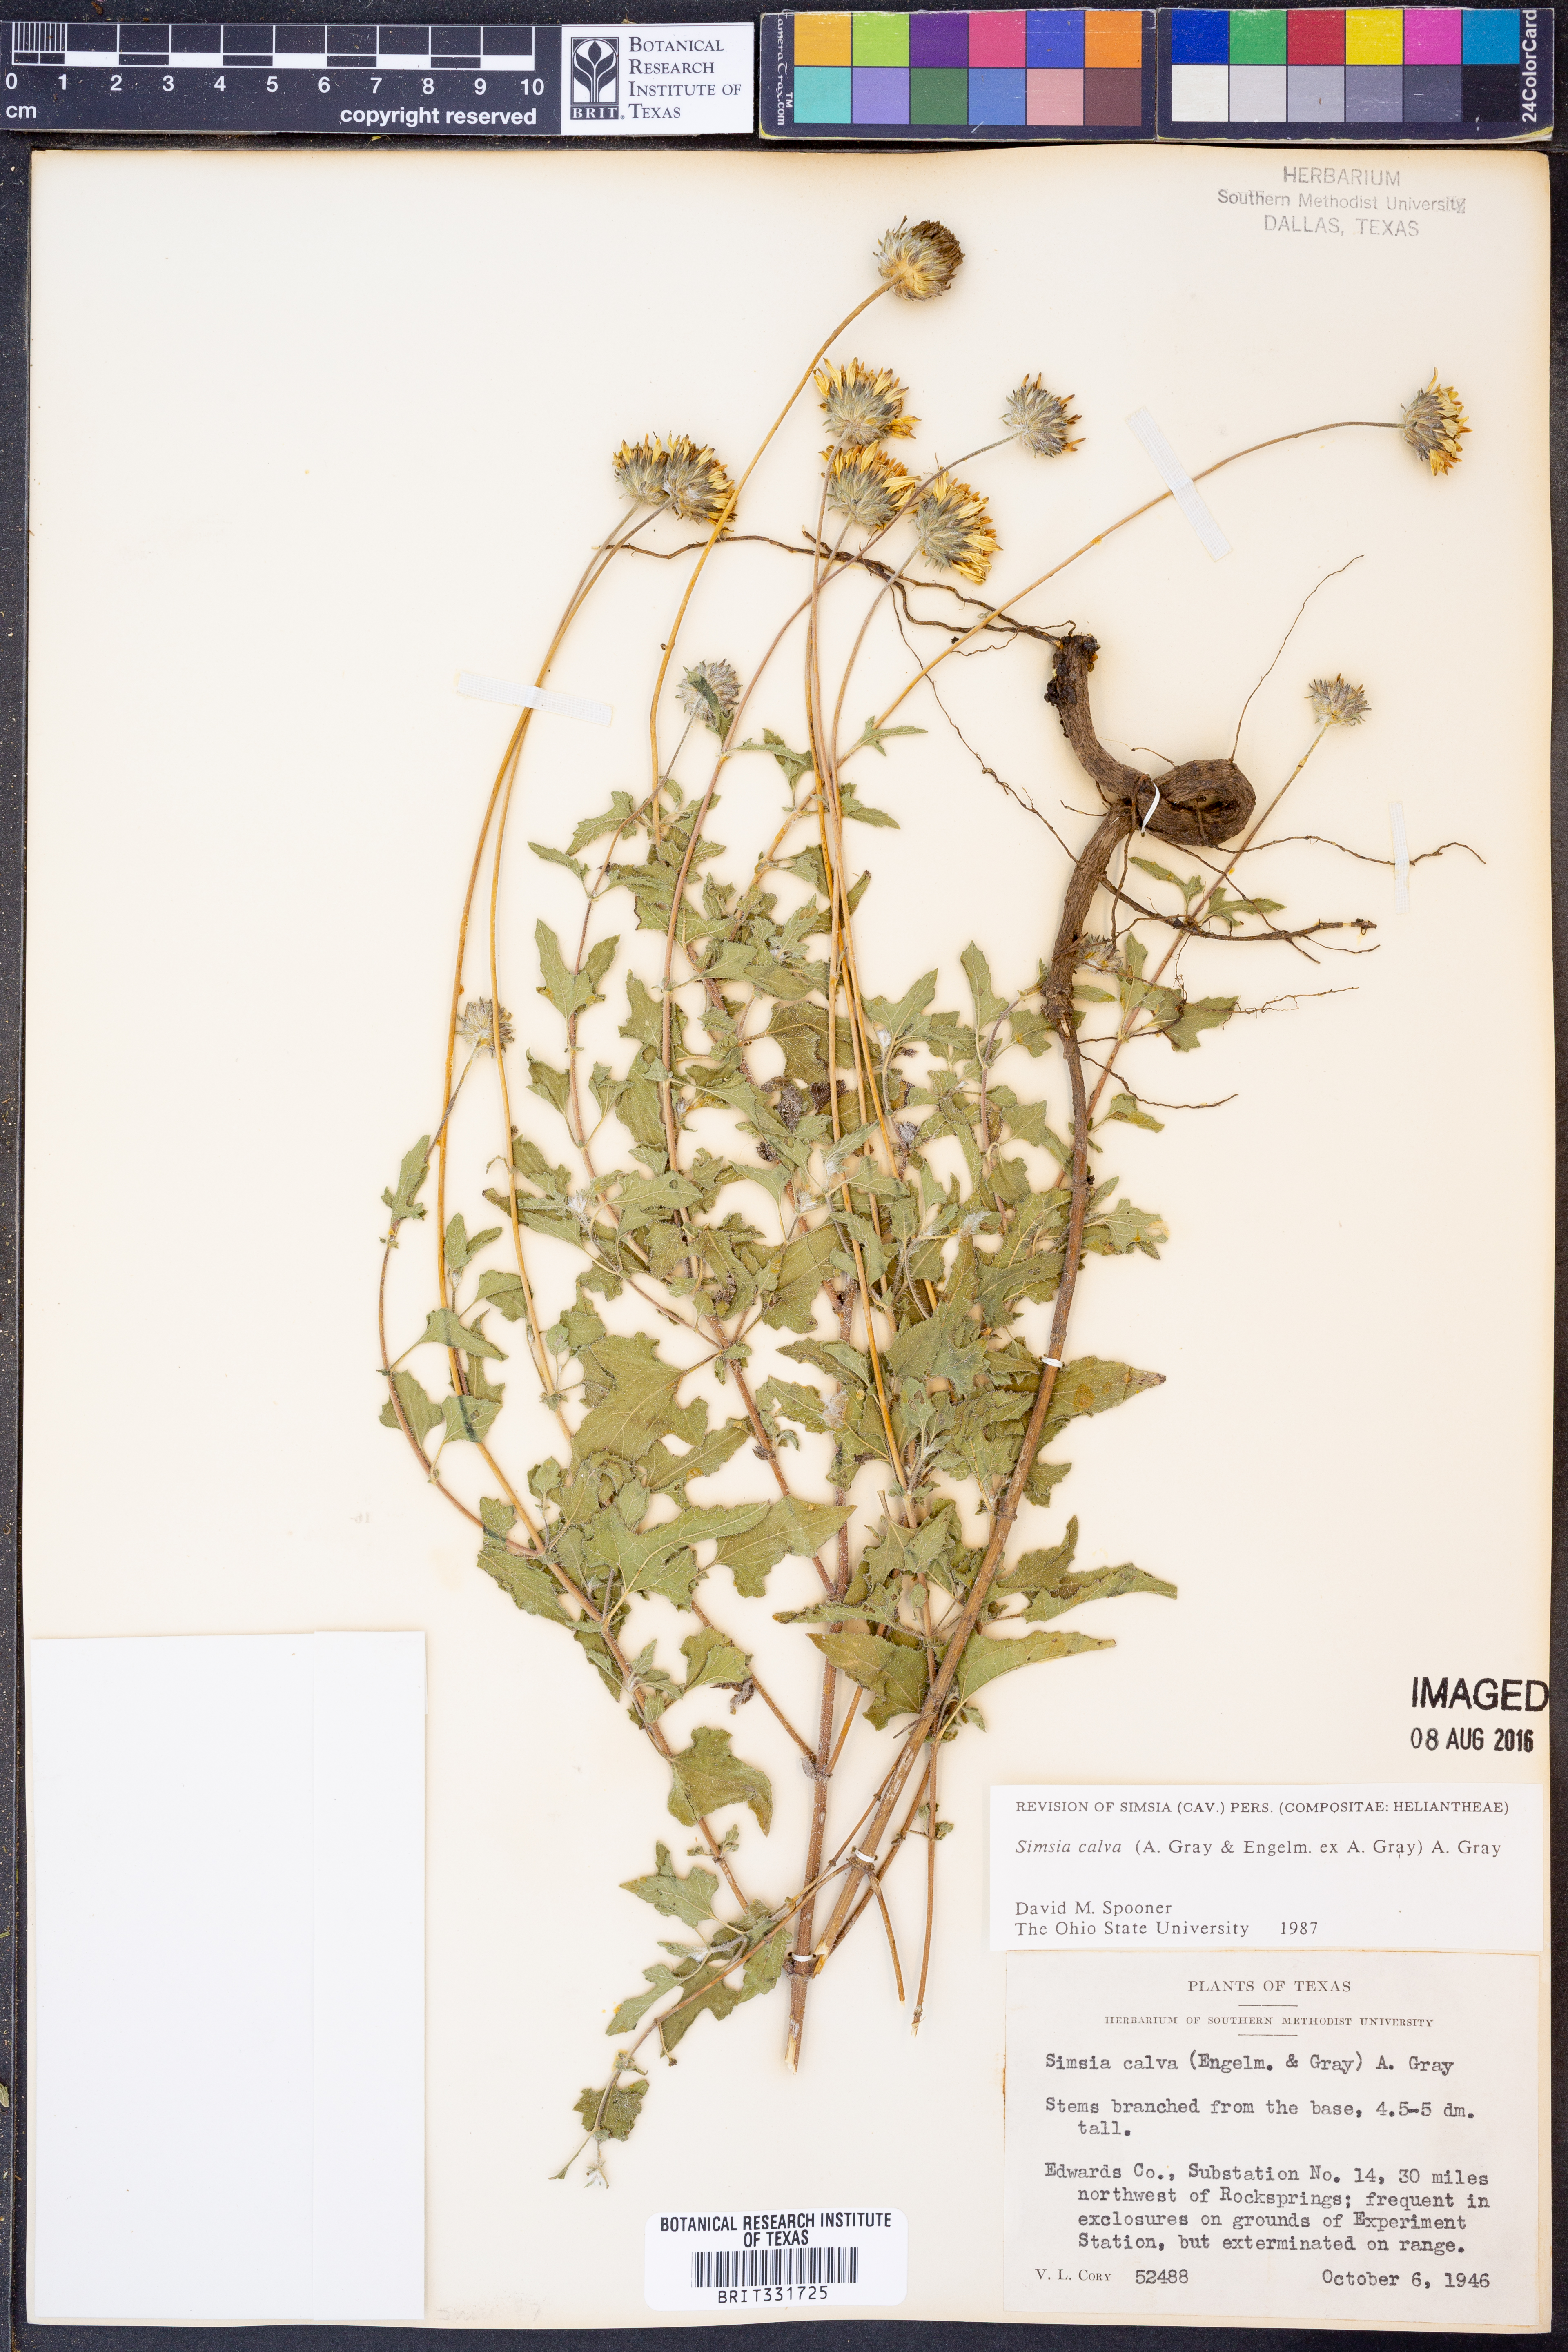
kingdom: Plantae
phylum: Tracheophyta
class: Magnoliopsida
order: Asterales
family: Asteraceae
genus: Simsia
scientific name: Simsia calva
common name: Awnless bush-sunflower
